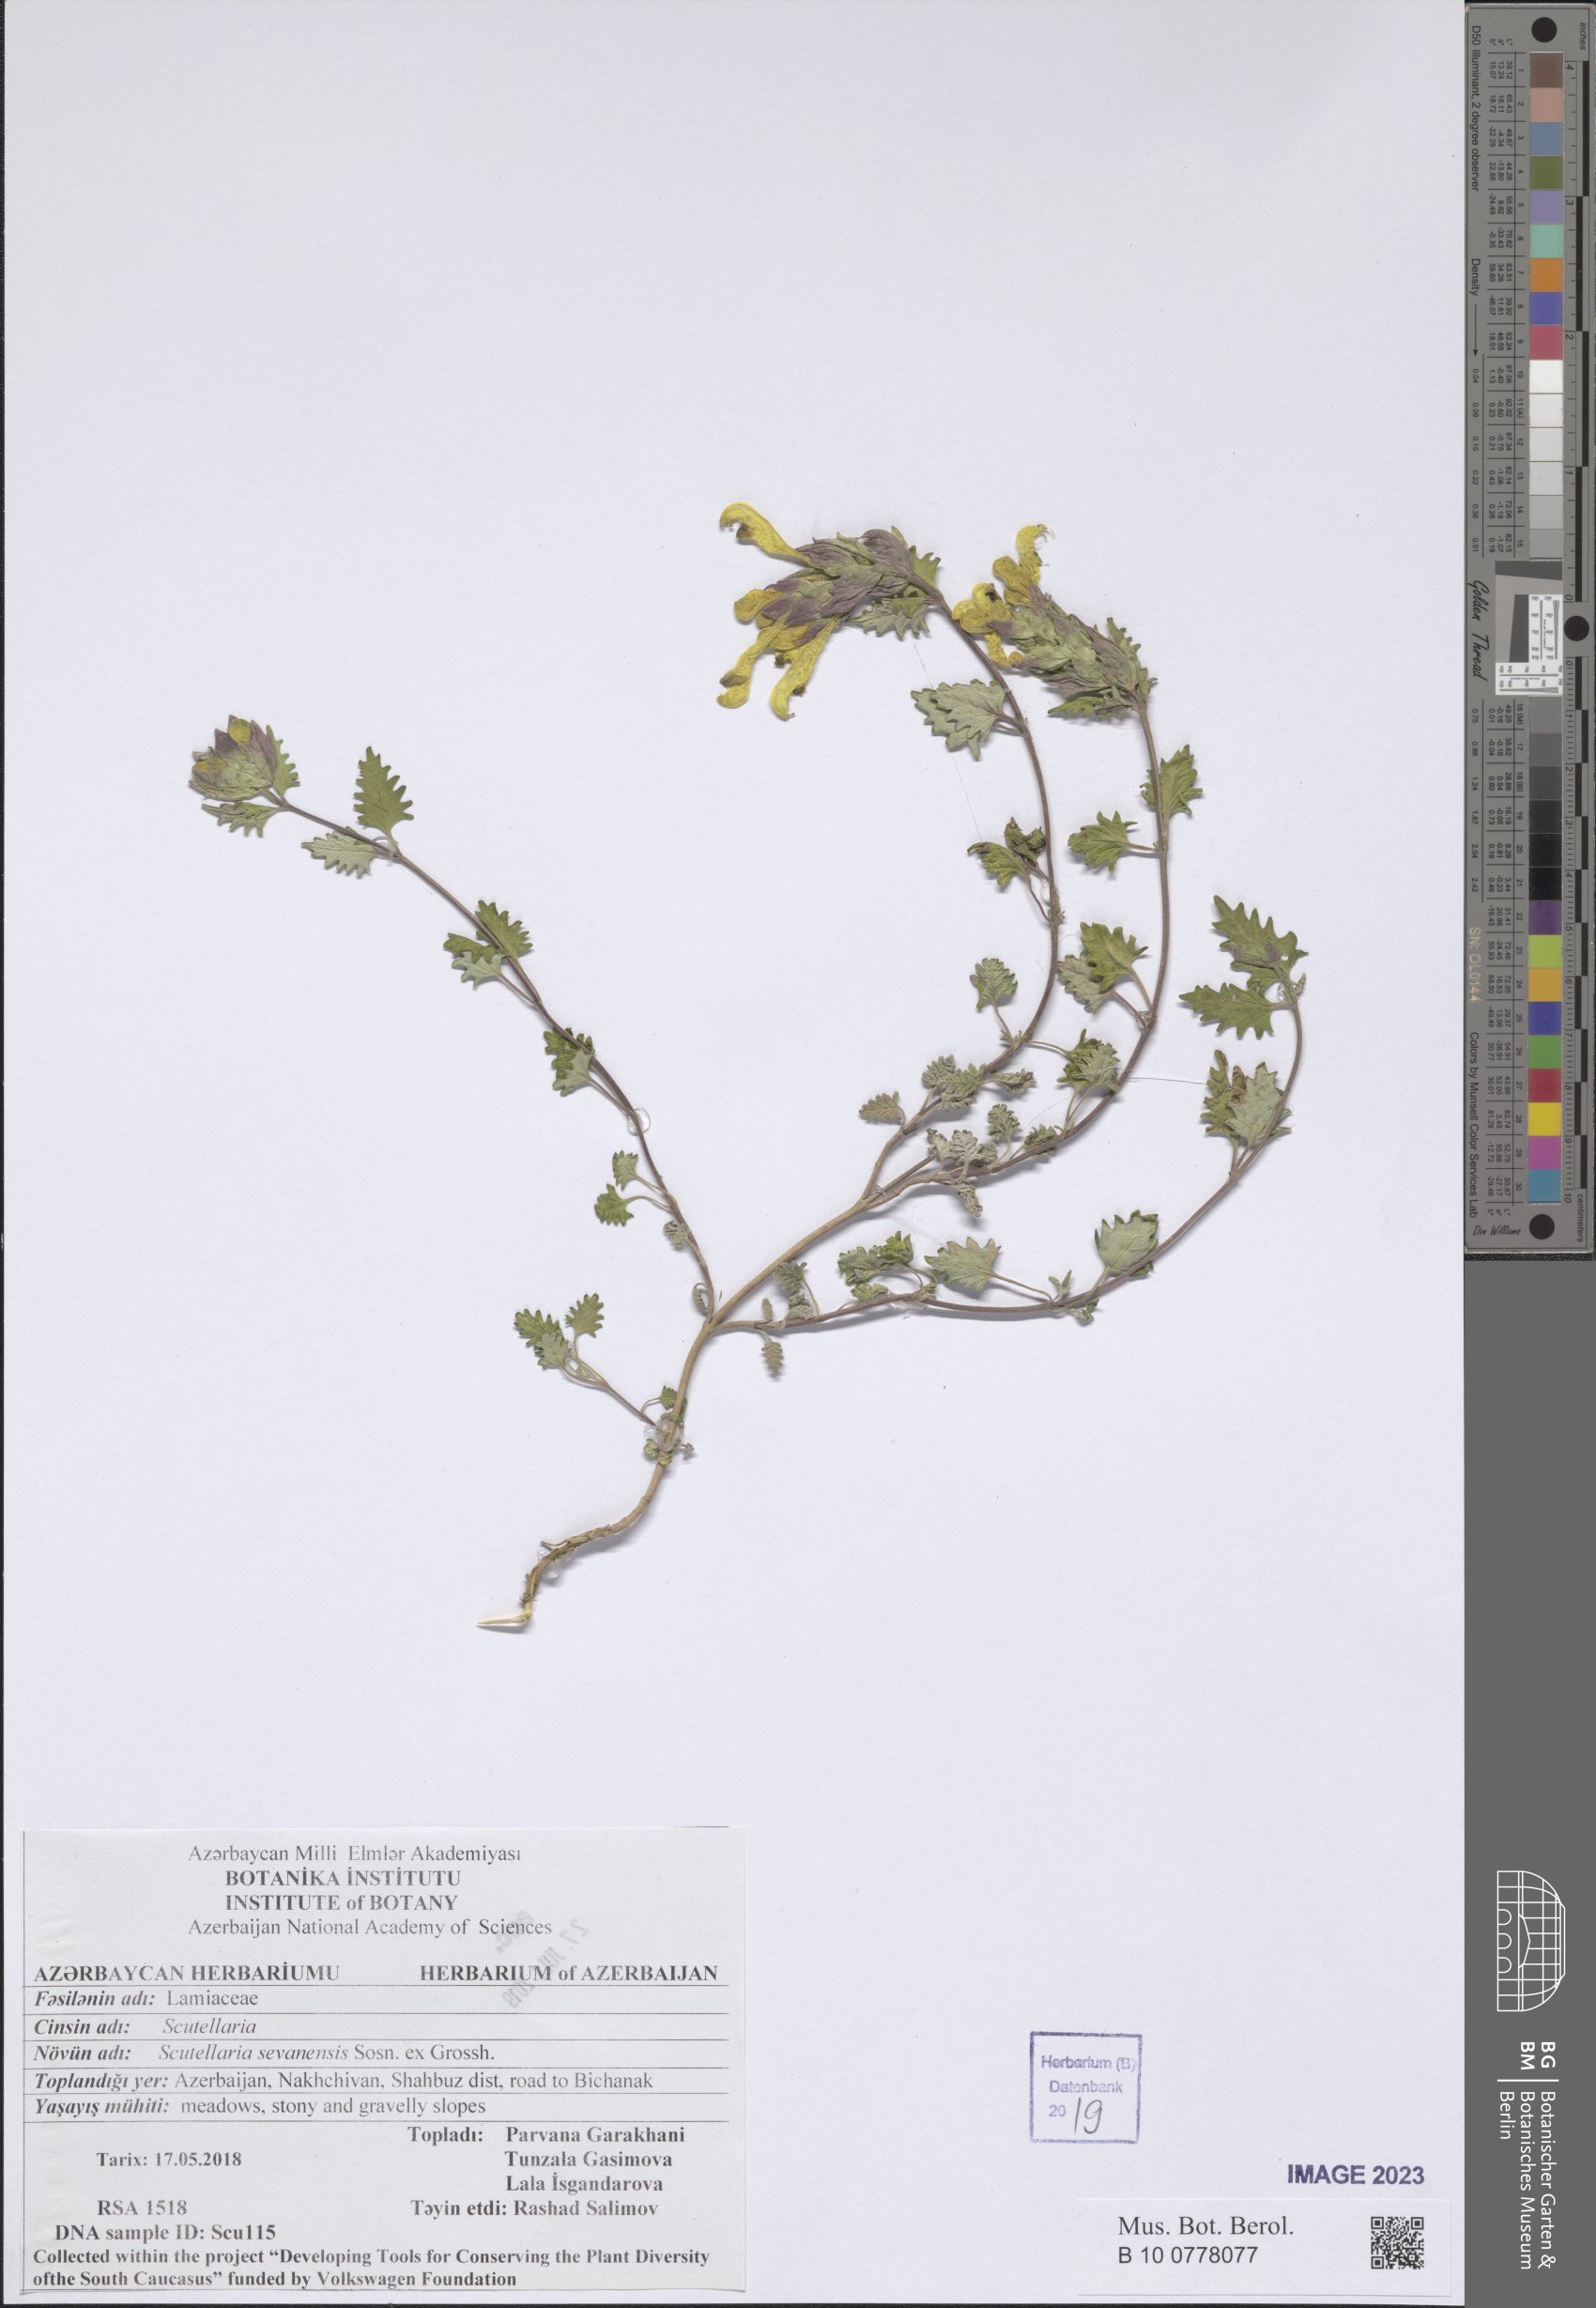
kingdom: Plantae
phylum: Tracheophyta
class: Magnoliopsida
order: Lamiales
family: Lamiaceae
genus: Scutellaria
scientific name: Scutellaria sevanensis
